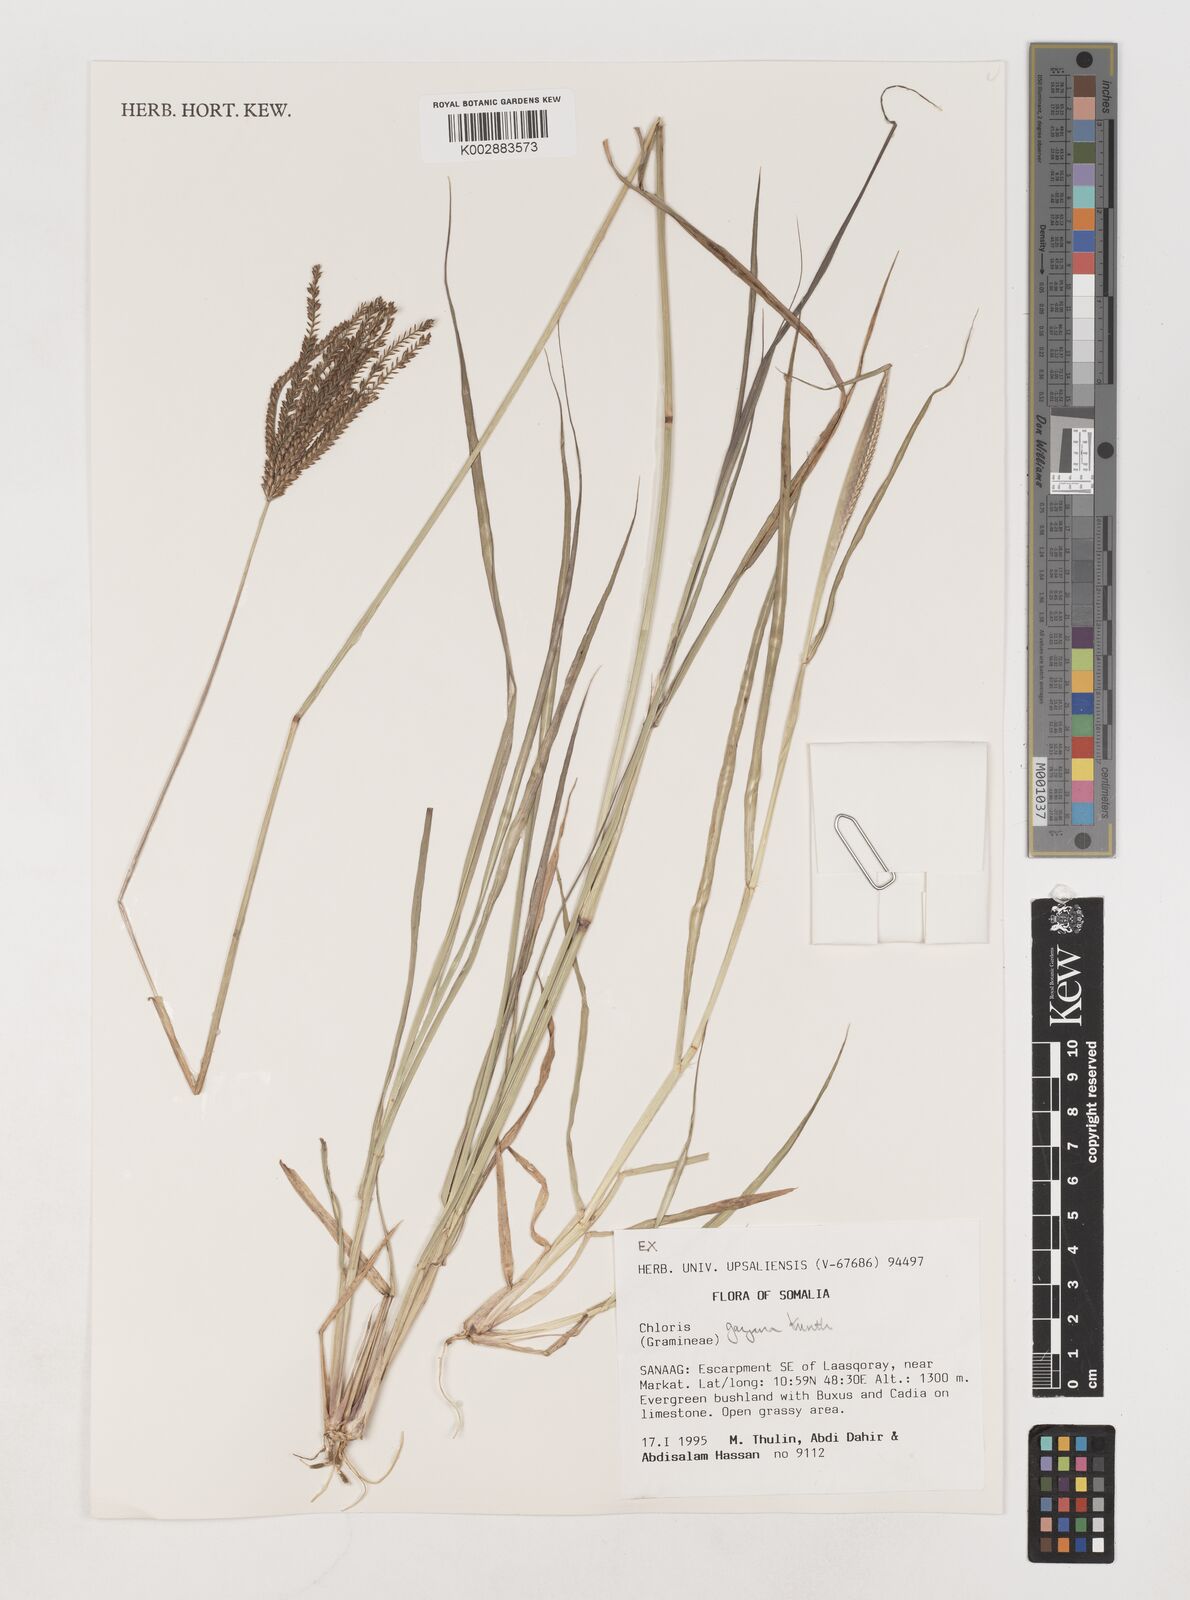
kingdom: Plantae
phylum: Tracheophyta
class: Liliopsida
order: Poales
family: Poaceae
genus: Chloris
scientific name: Chloris gayana
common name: Rhodes grass
